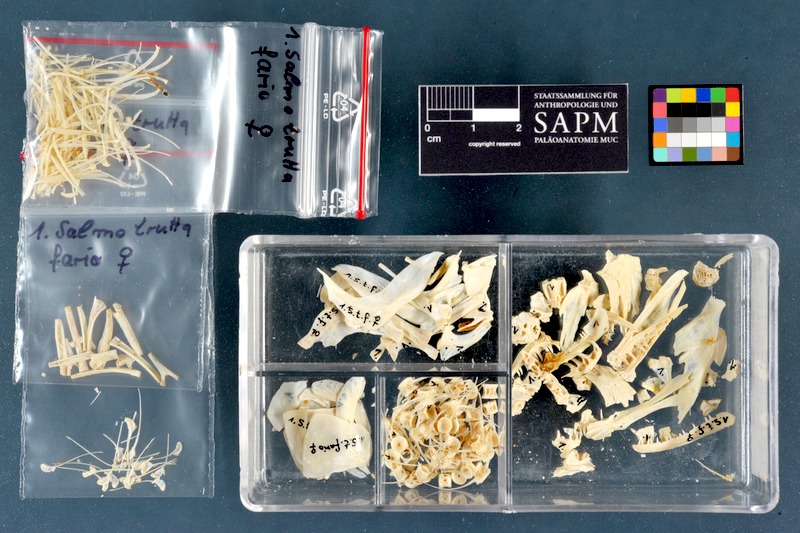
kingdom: Animalia
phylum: Chordata
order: Salmoniformes
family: Salmonidae
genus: Salmo
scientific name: Salmo trutta
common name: Brown trout
